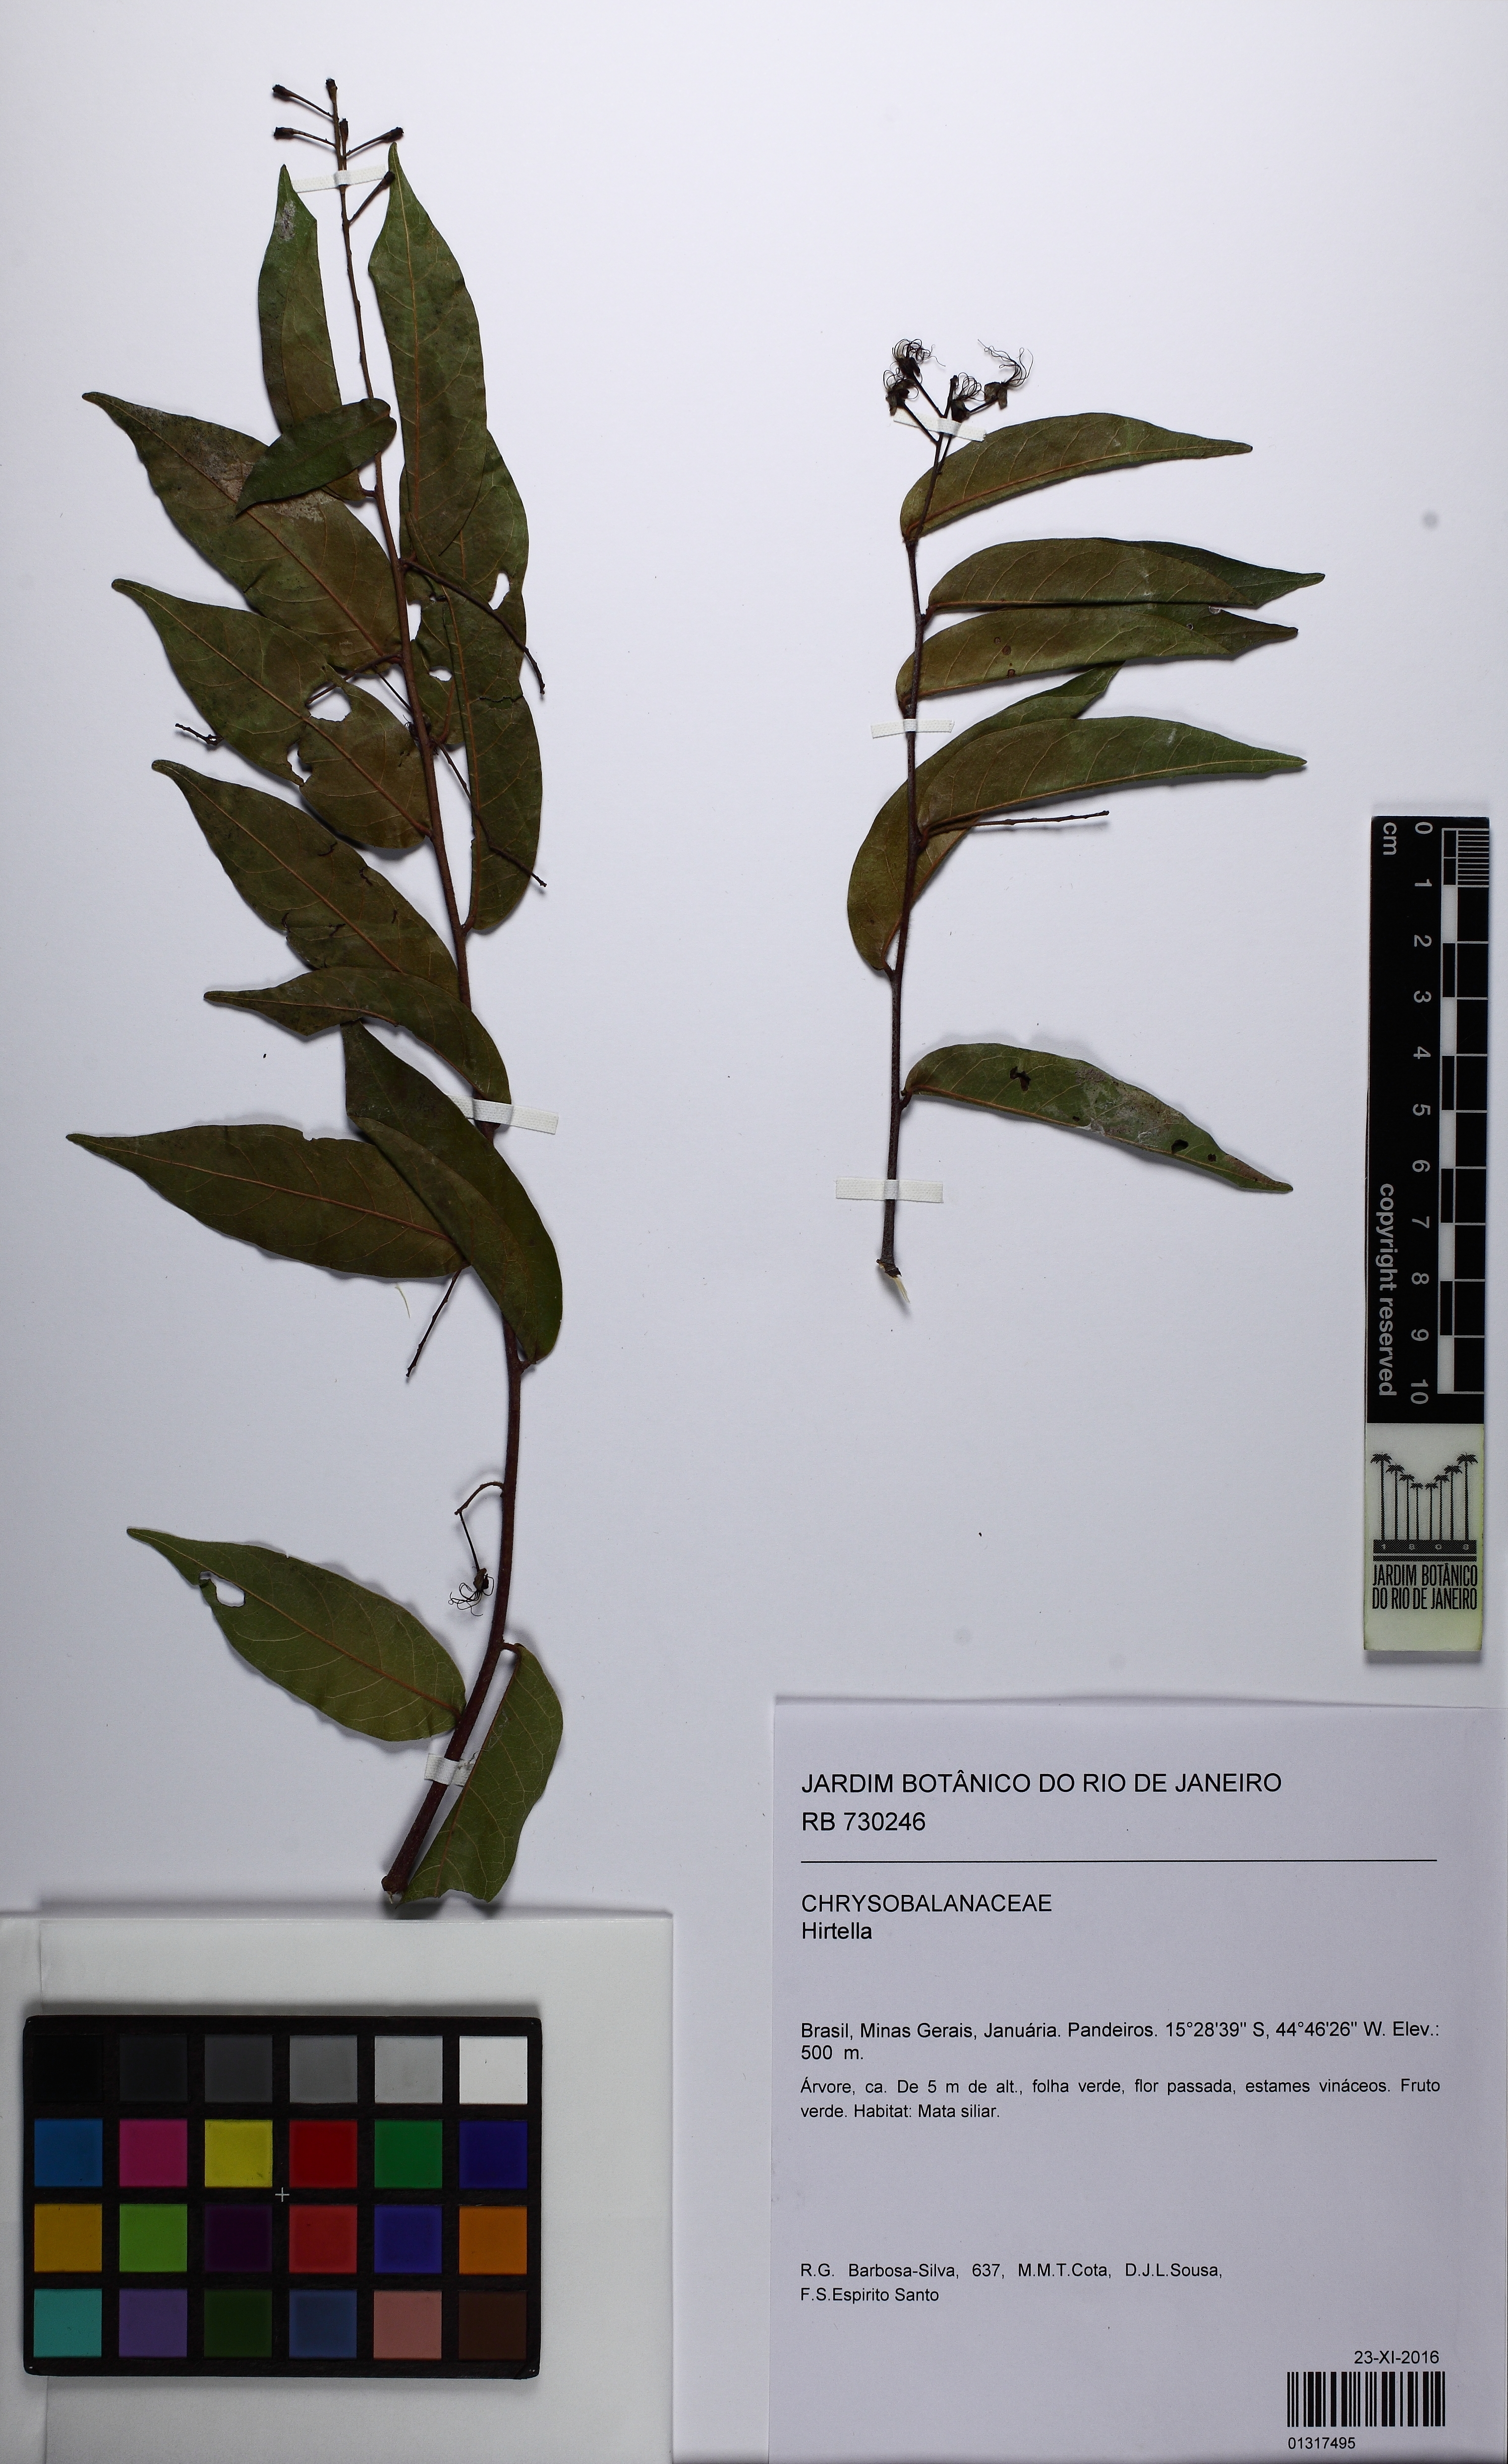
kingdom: Plantae
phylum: Tracheophyta
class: Magnoliopsida
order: Malpighiales
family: Chrysobalanaceae
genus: Hirtella
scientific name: Hirtella gracilipes
